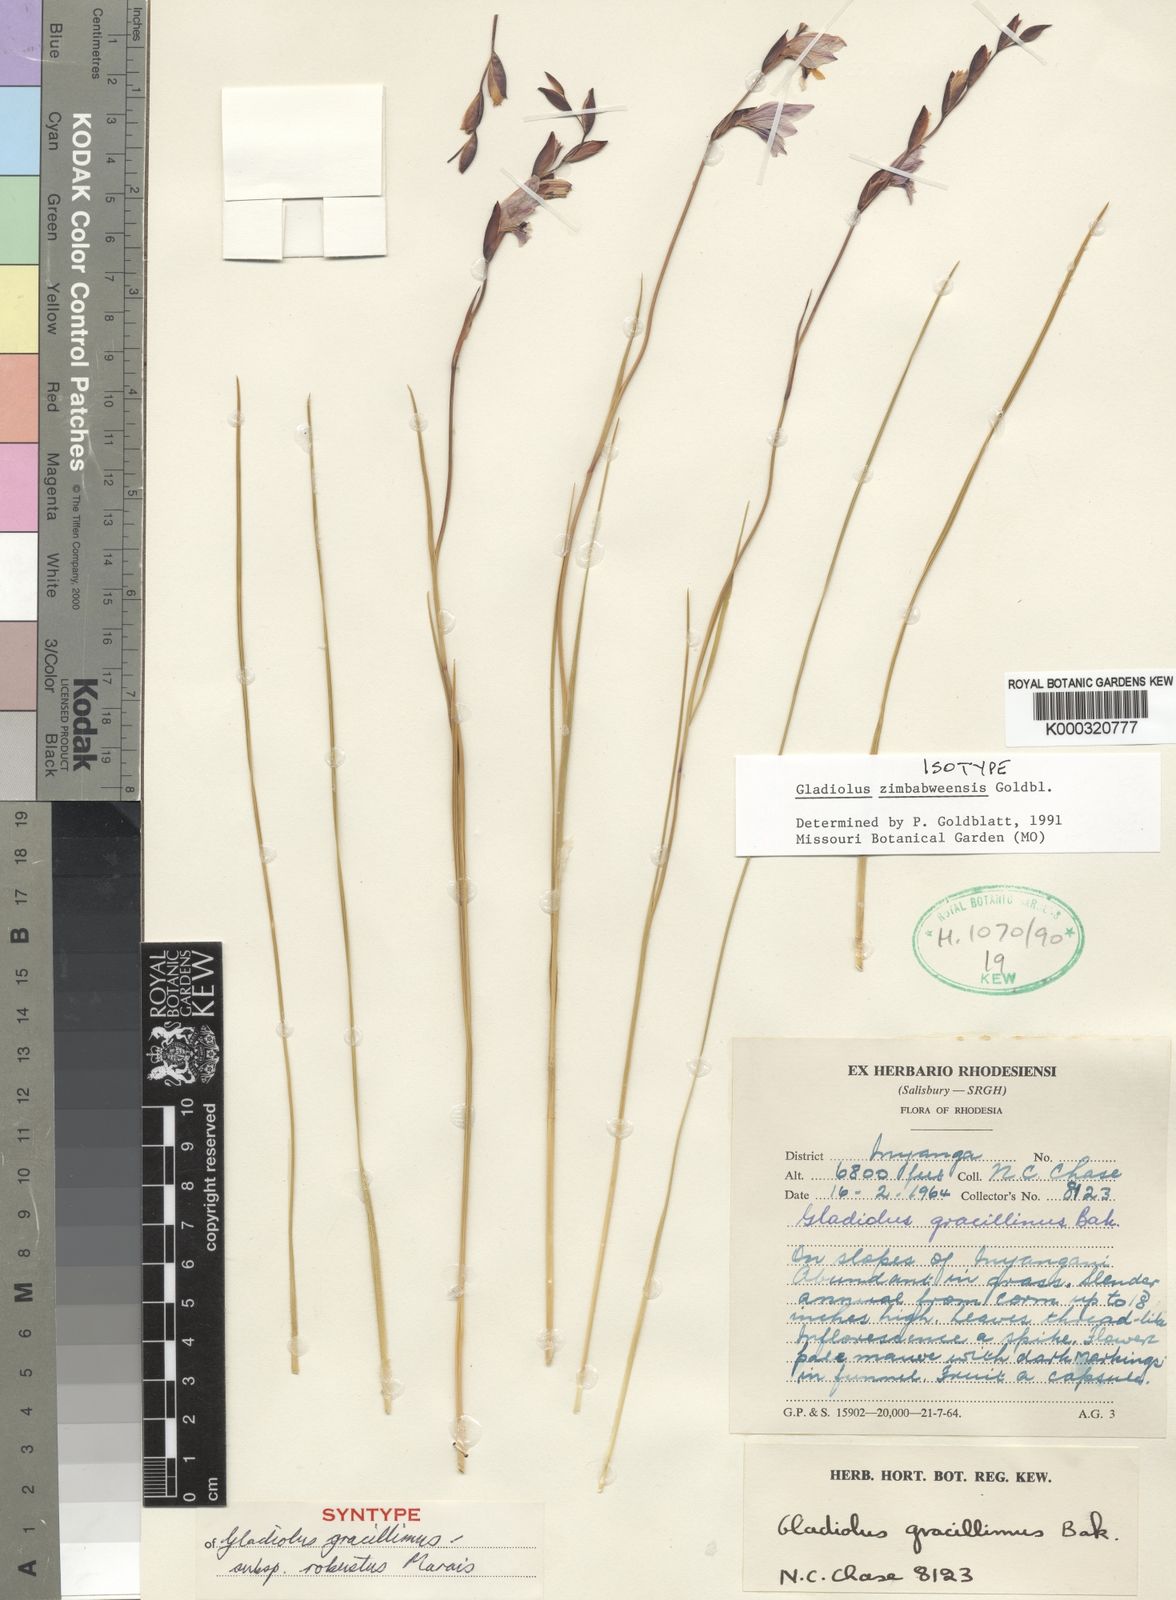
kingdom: Plantae
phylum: Tracheophyta
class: Liliopsida
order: Asparagales
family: Iridaceae
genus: Gladiolus
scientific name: Gladiolus zimbabweensis
